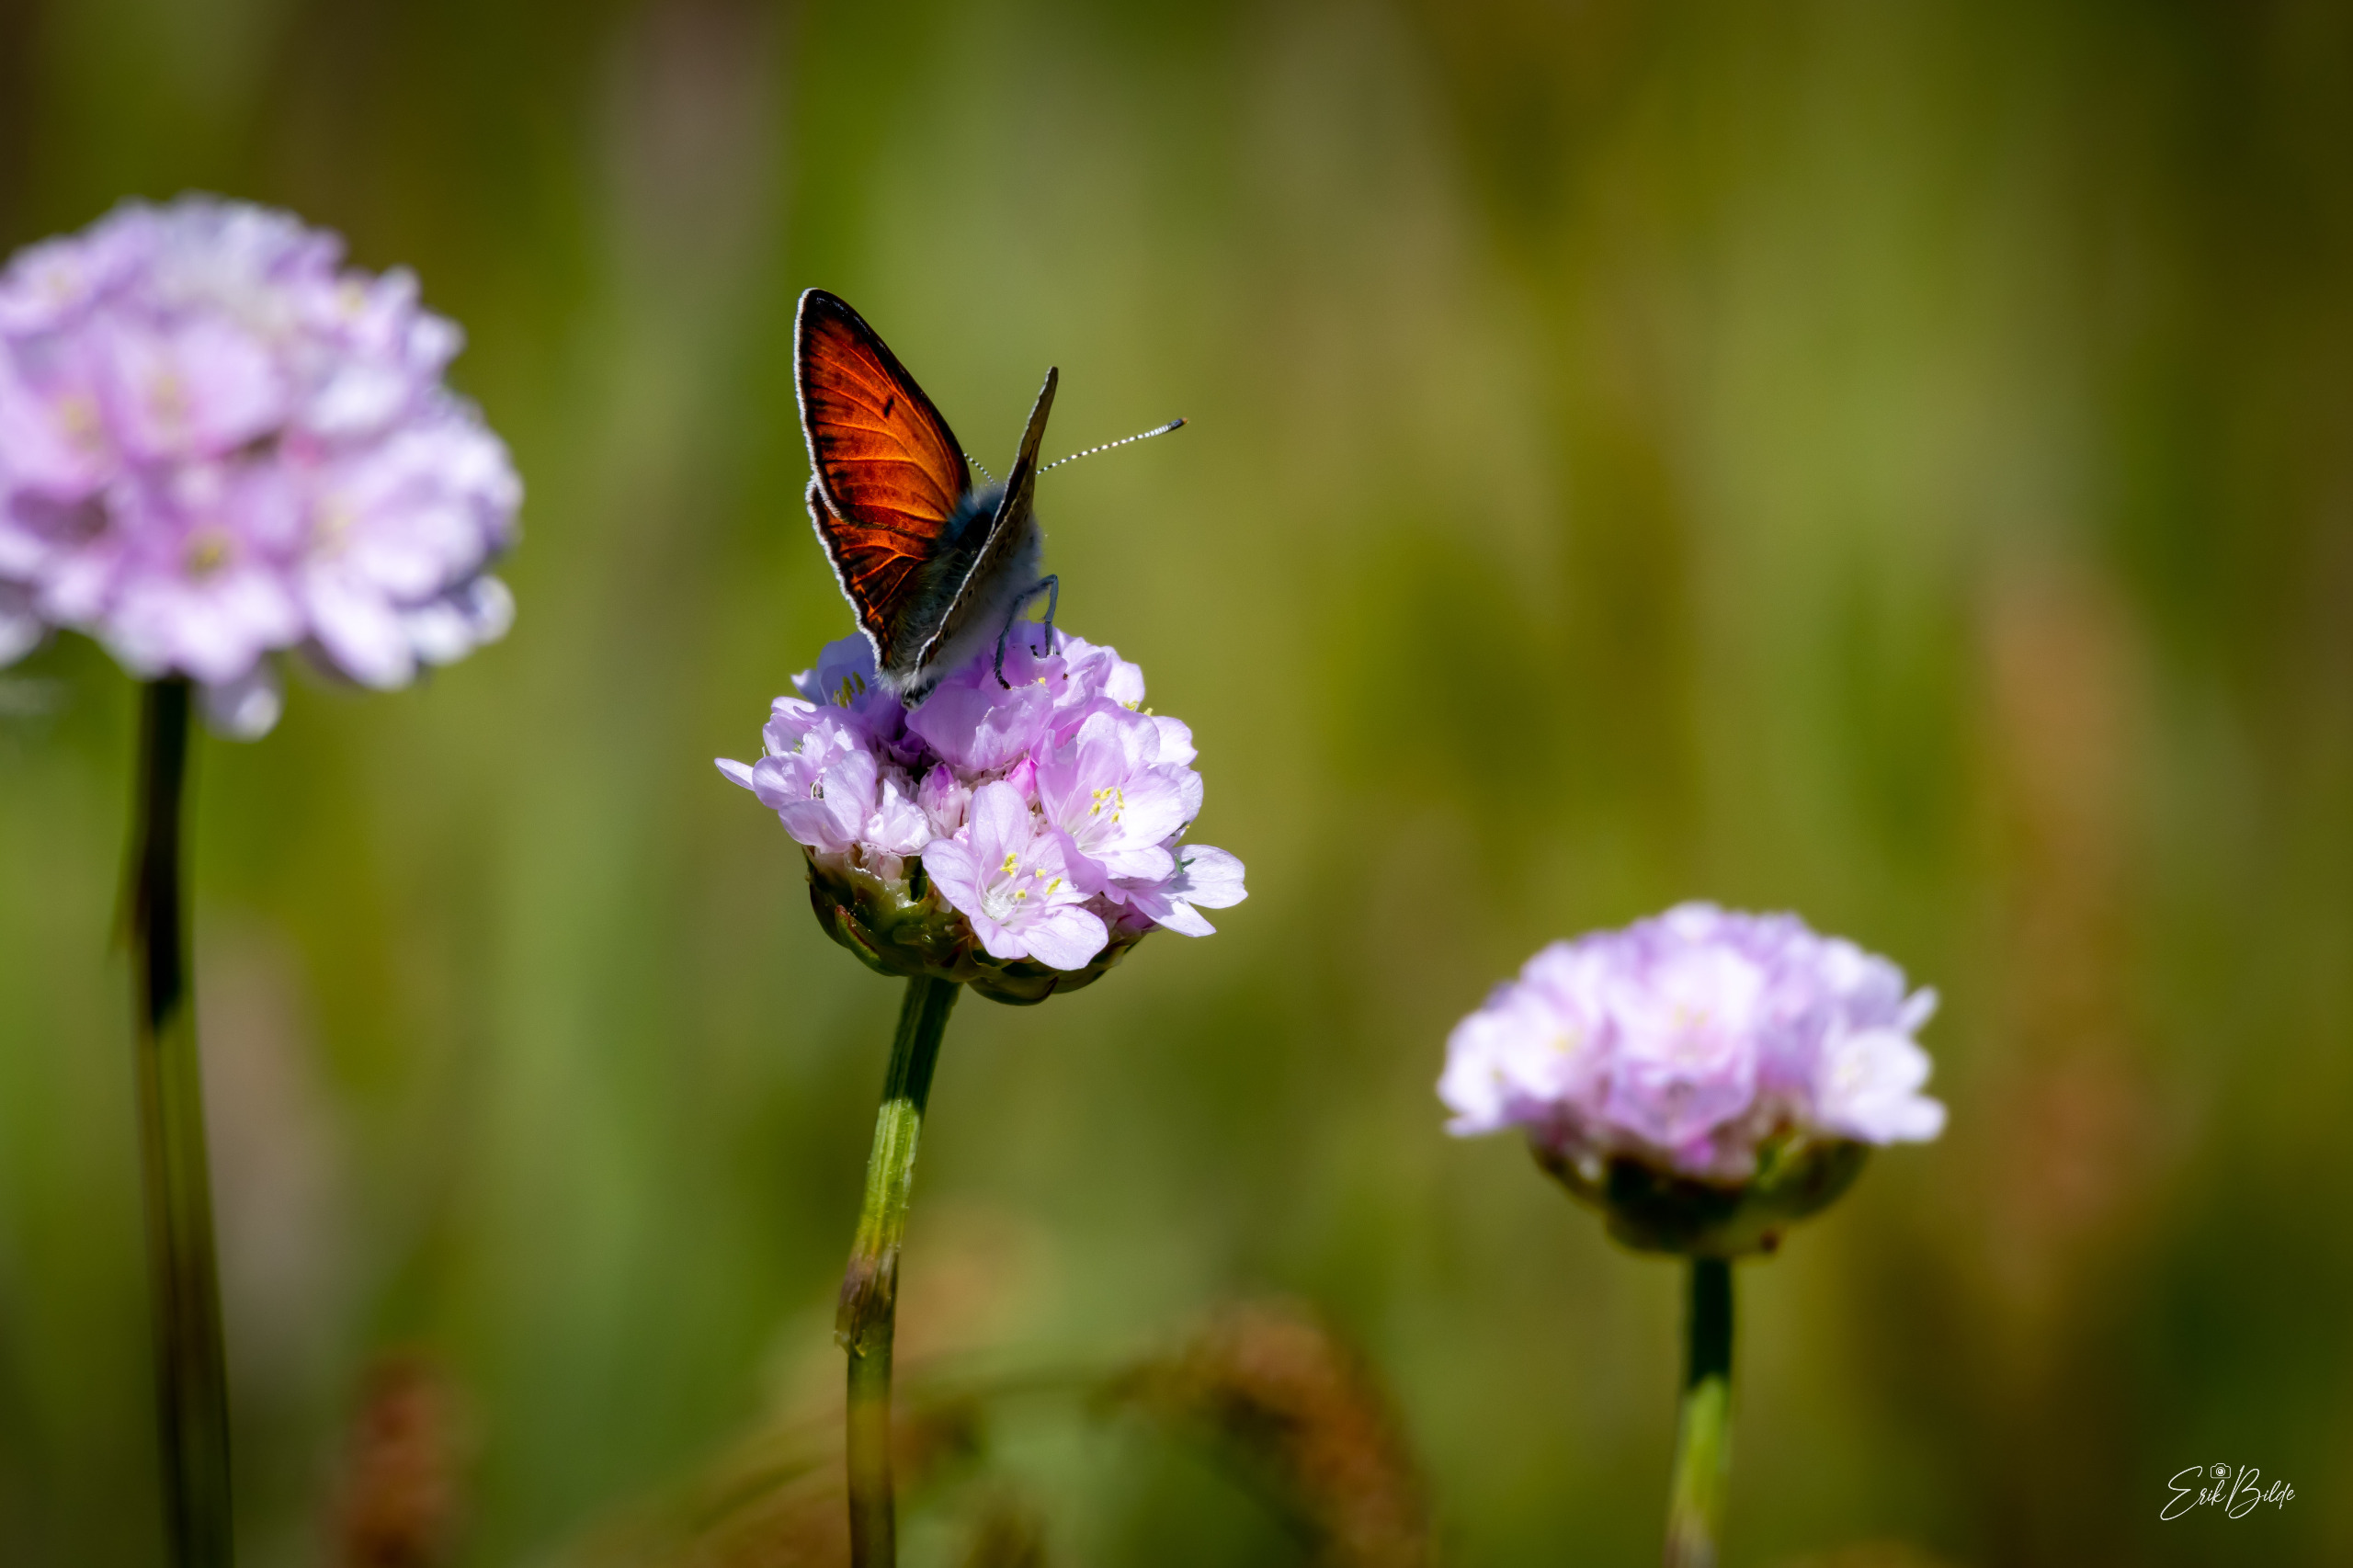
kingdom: Animalia
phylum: Arthropoda
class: Insecta
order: Lepidoptera
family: Lycaenidae
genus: Palaeochrysophanus
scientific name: Palaeochrysophanus hippothoe
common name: Violetrandet ildfugl
